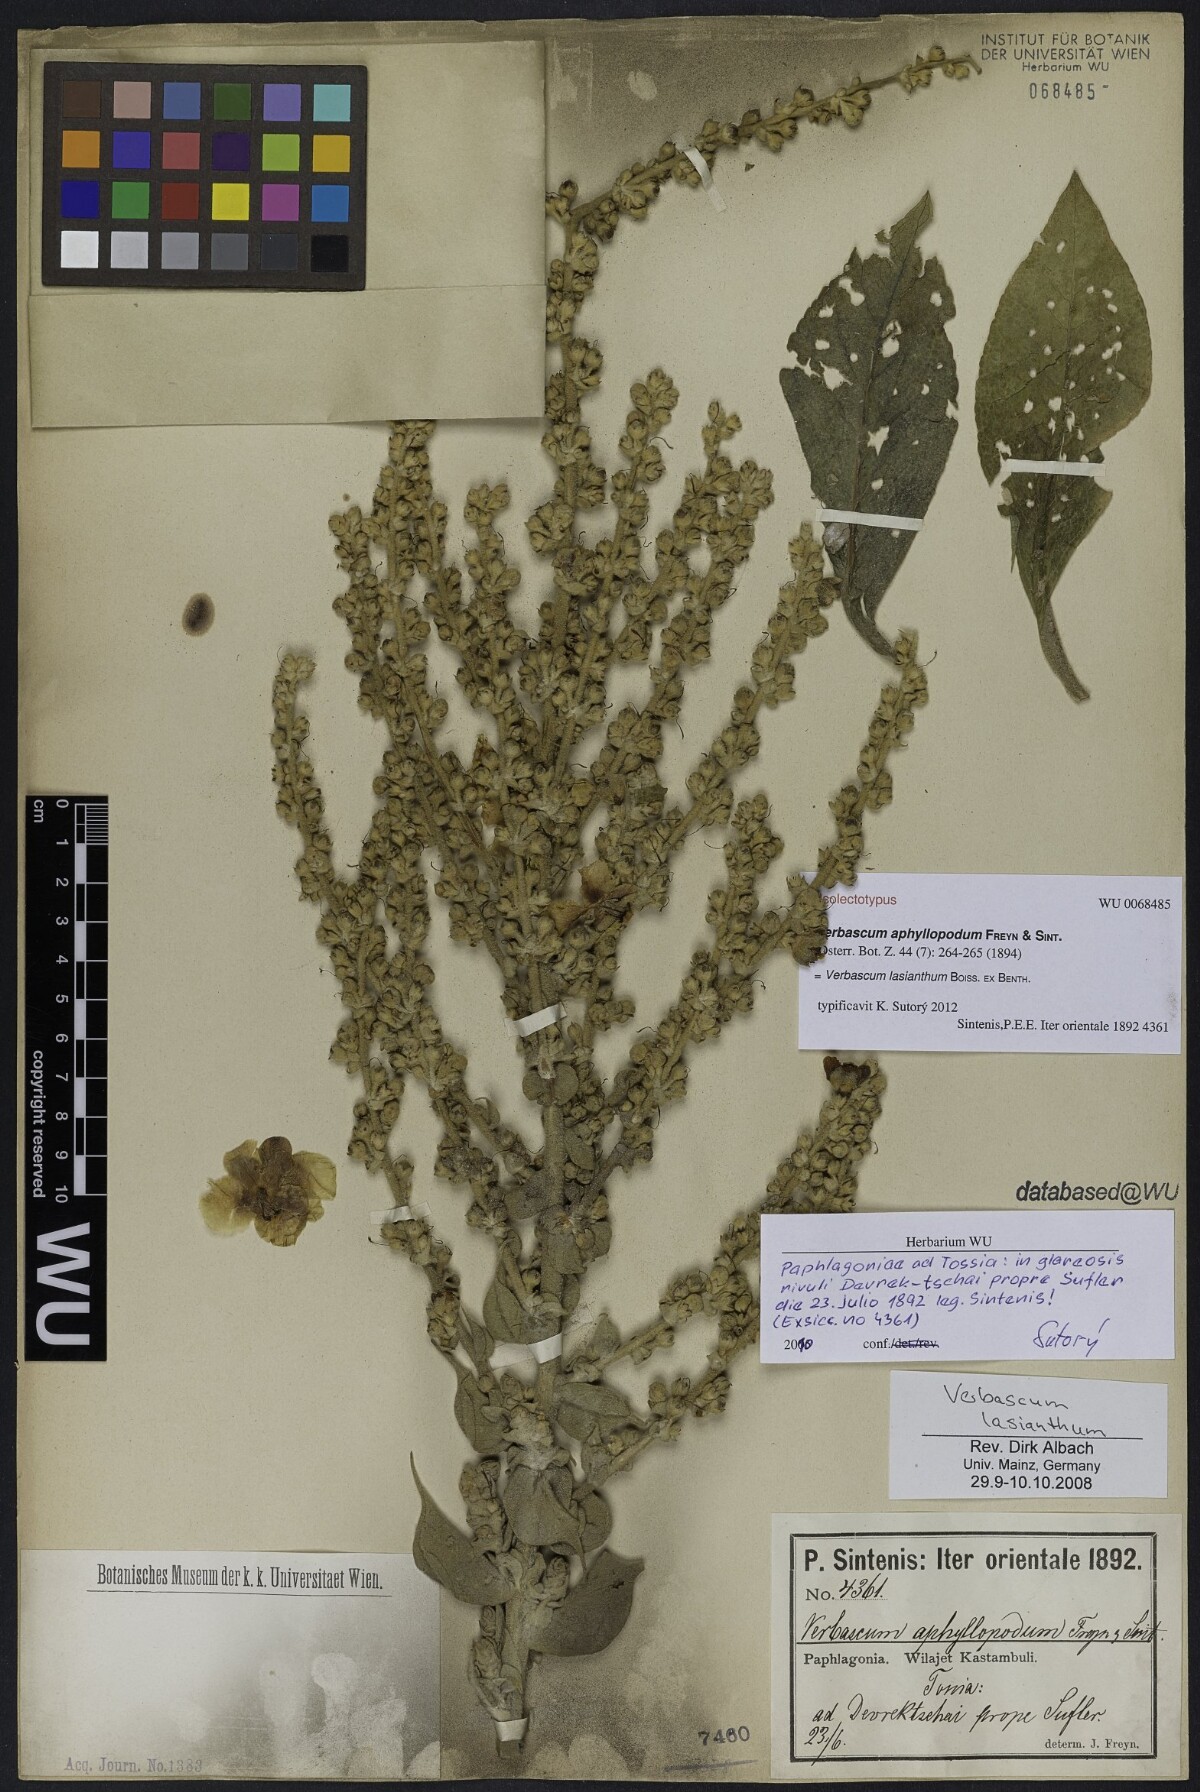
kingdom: Plantae
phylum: Tracheophyta
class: Magnoliopsida
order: Lamiales
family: Scrophulariaceae
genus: Verbascum
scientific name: Verbascum lasianthum
